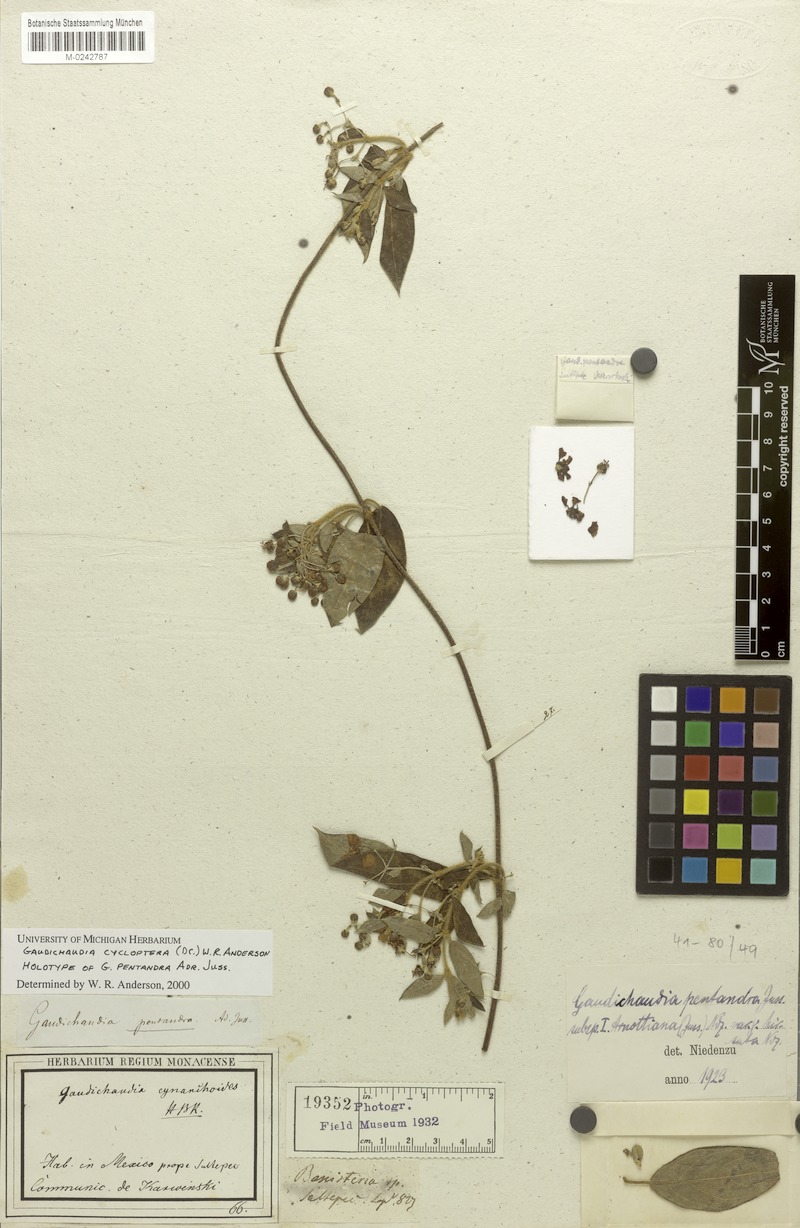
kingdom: Plantae
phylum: Tracheophyta
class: Magnoliopsida
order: Malpighiales
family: Malpighiaceae
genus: Gaudichaudia
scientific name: Gaudichaudia cycloptera
